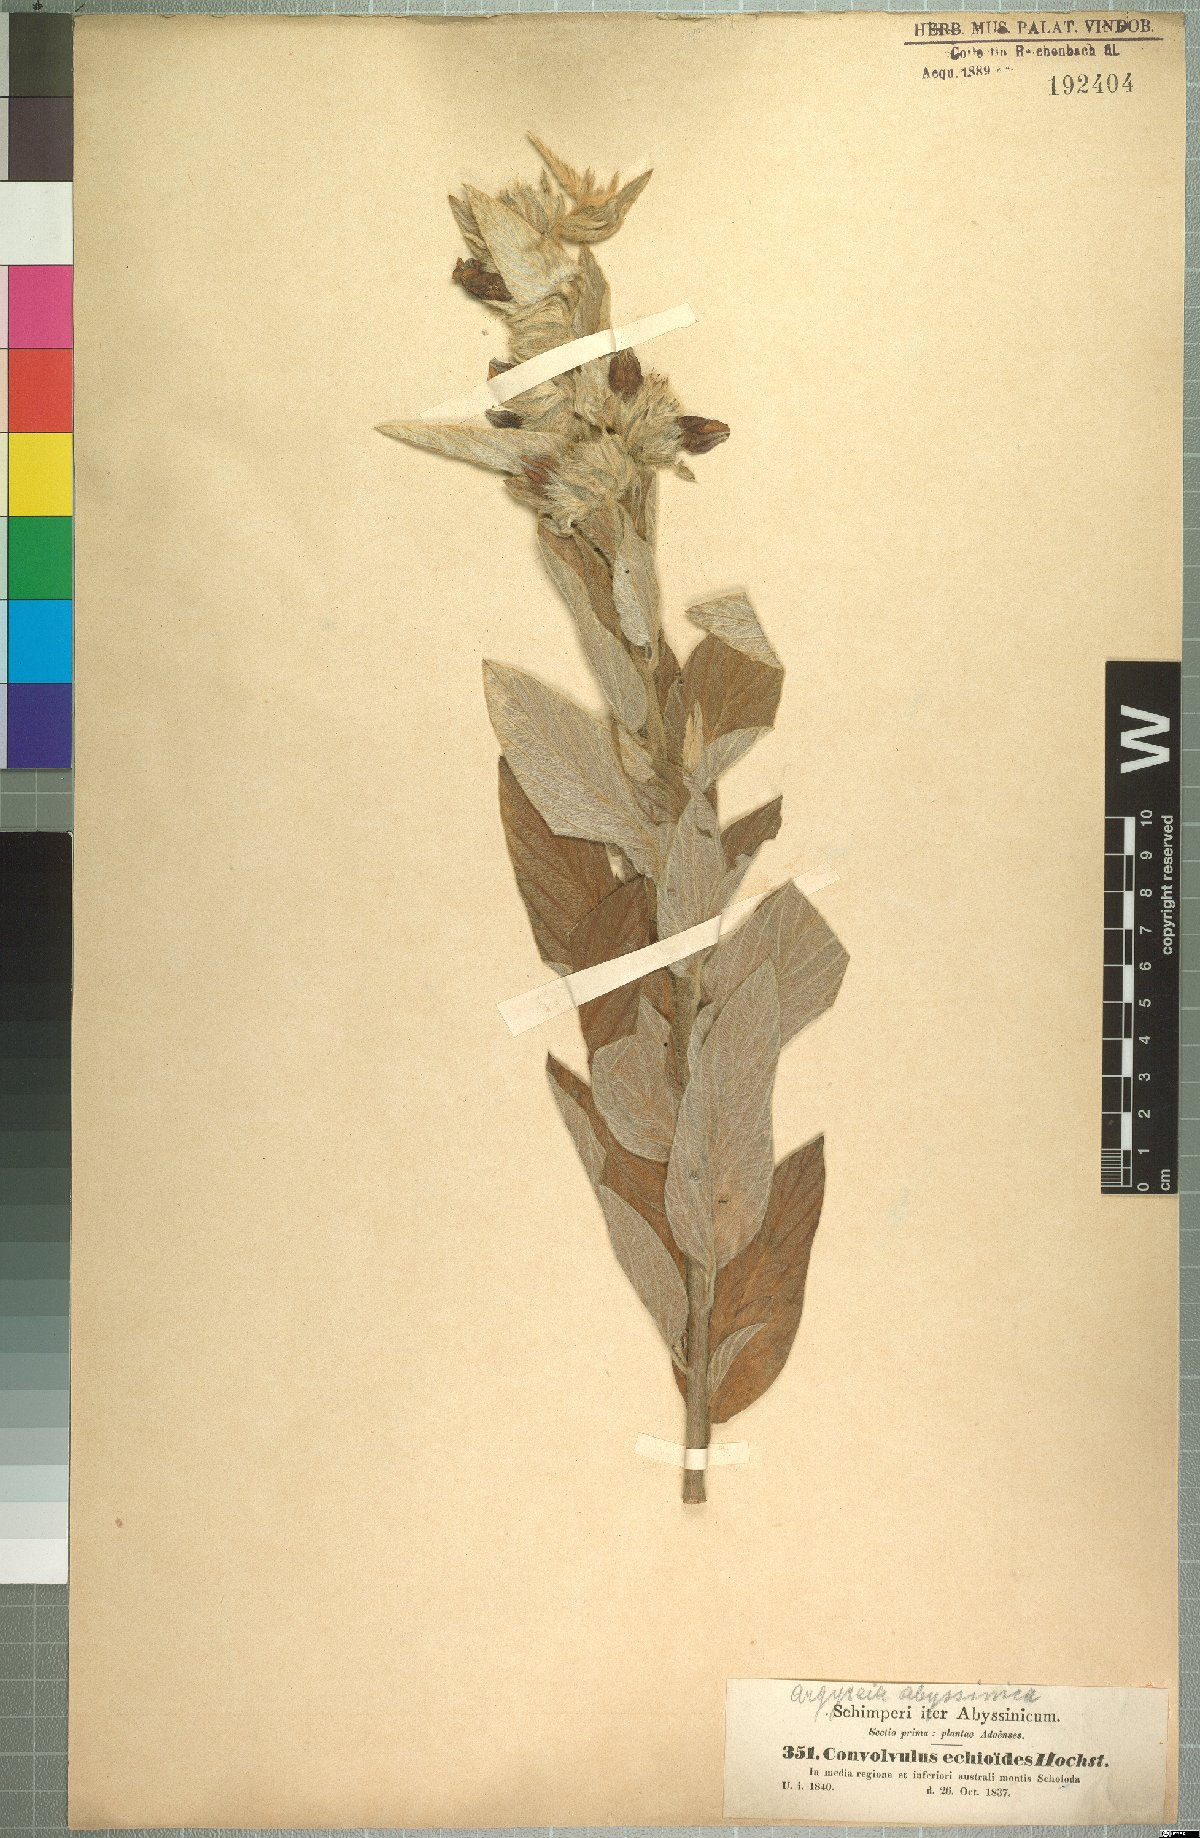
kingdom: Plantae
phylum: Tracheophyta
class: Magnoliopsida
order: Solanales
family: Convolvulaceae
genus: Ipomoea
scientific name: Ipomoea abyssinica
